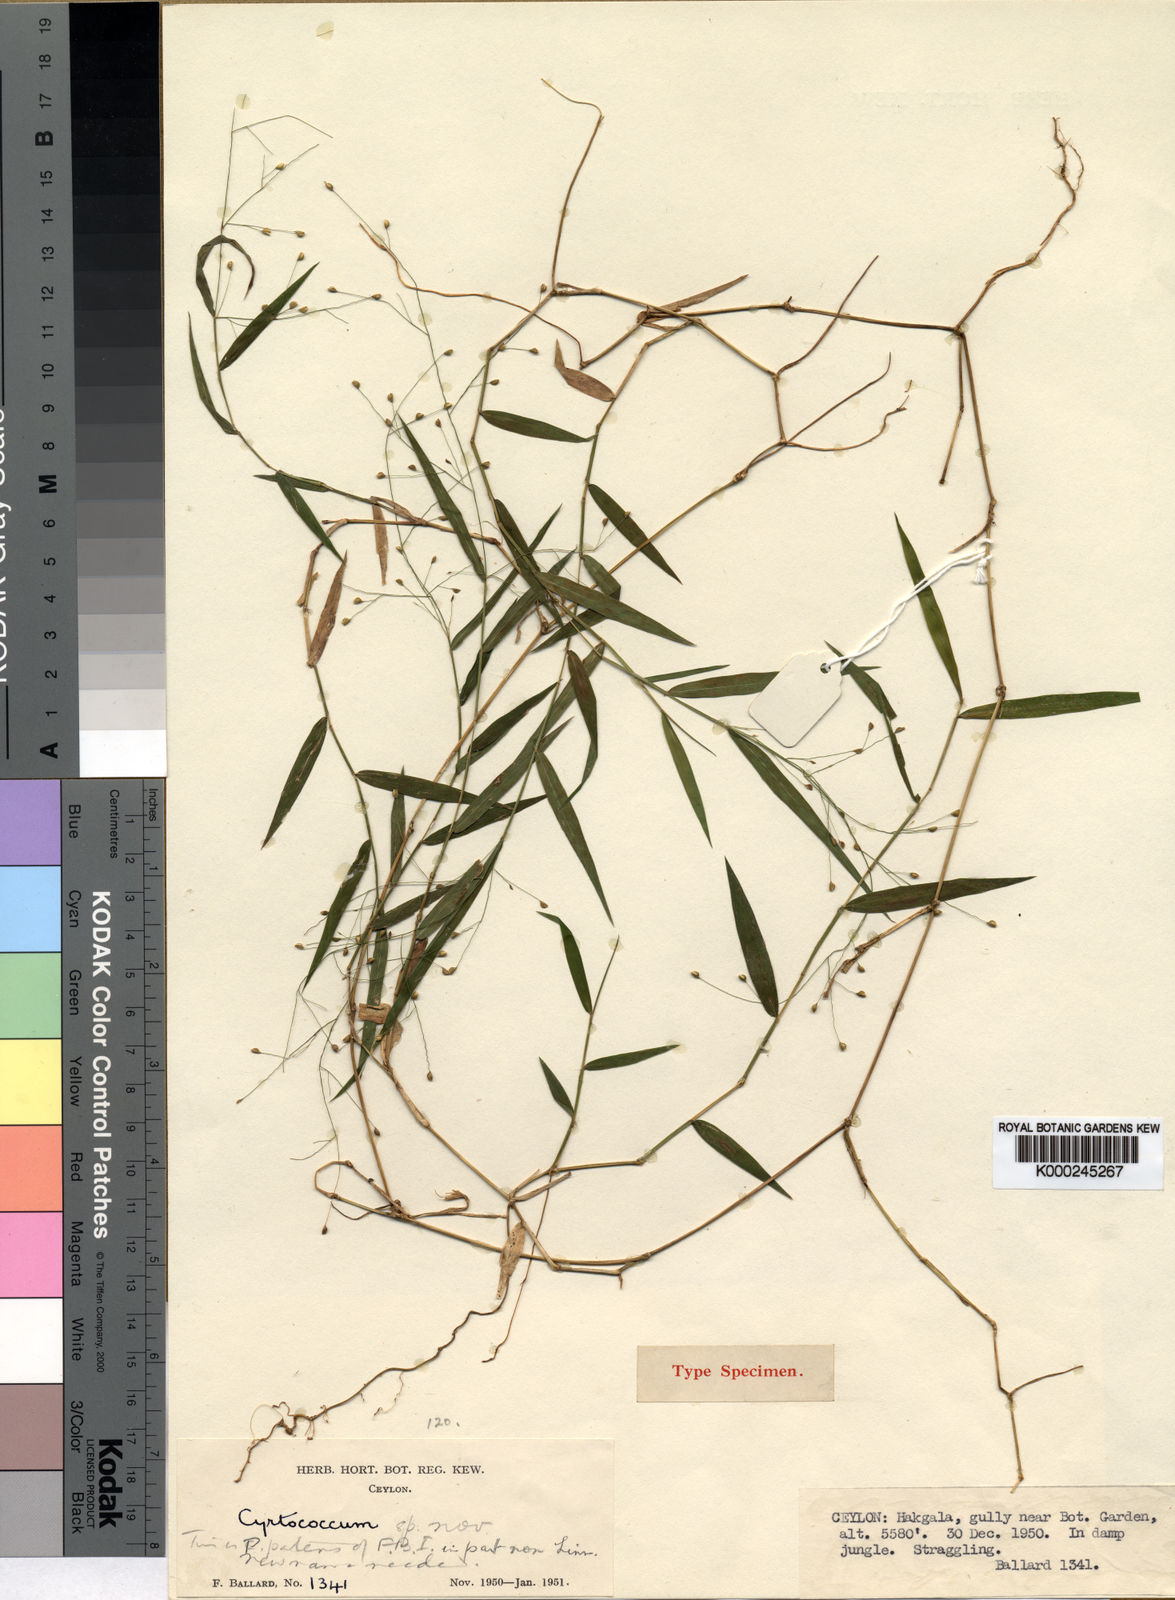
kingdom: Plantae
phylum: Tracheophyta
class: Liliopsida
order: Poales
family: Poaceae
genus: Cyrtococcum
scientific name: Cyrtococcum deccanense
